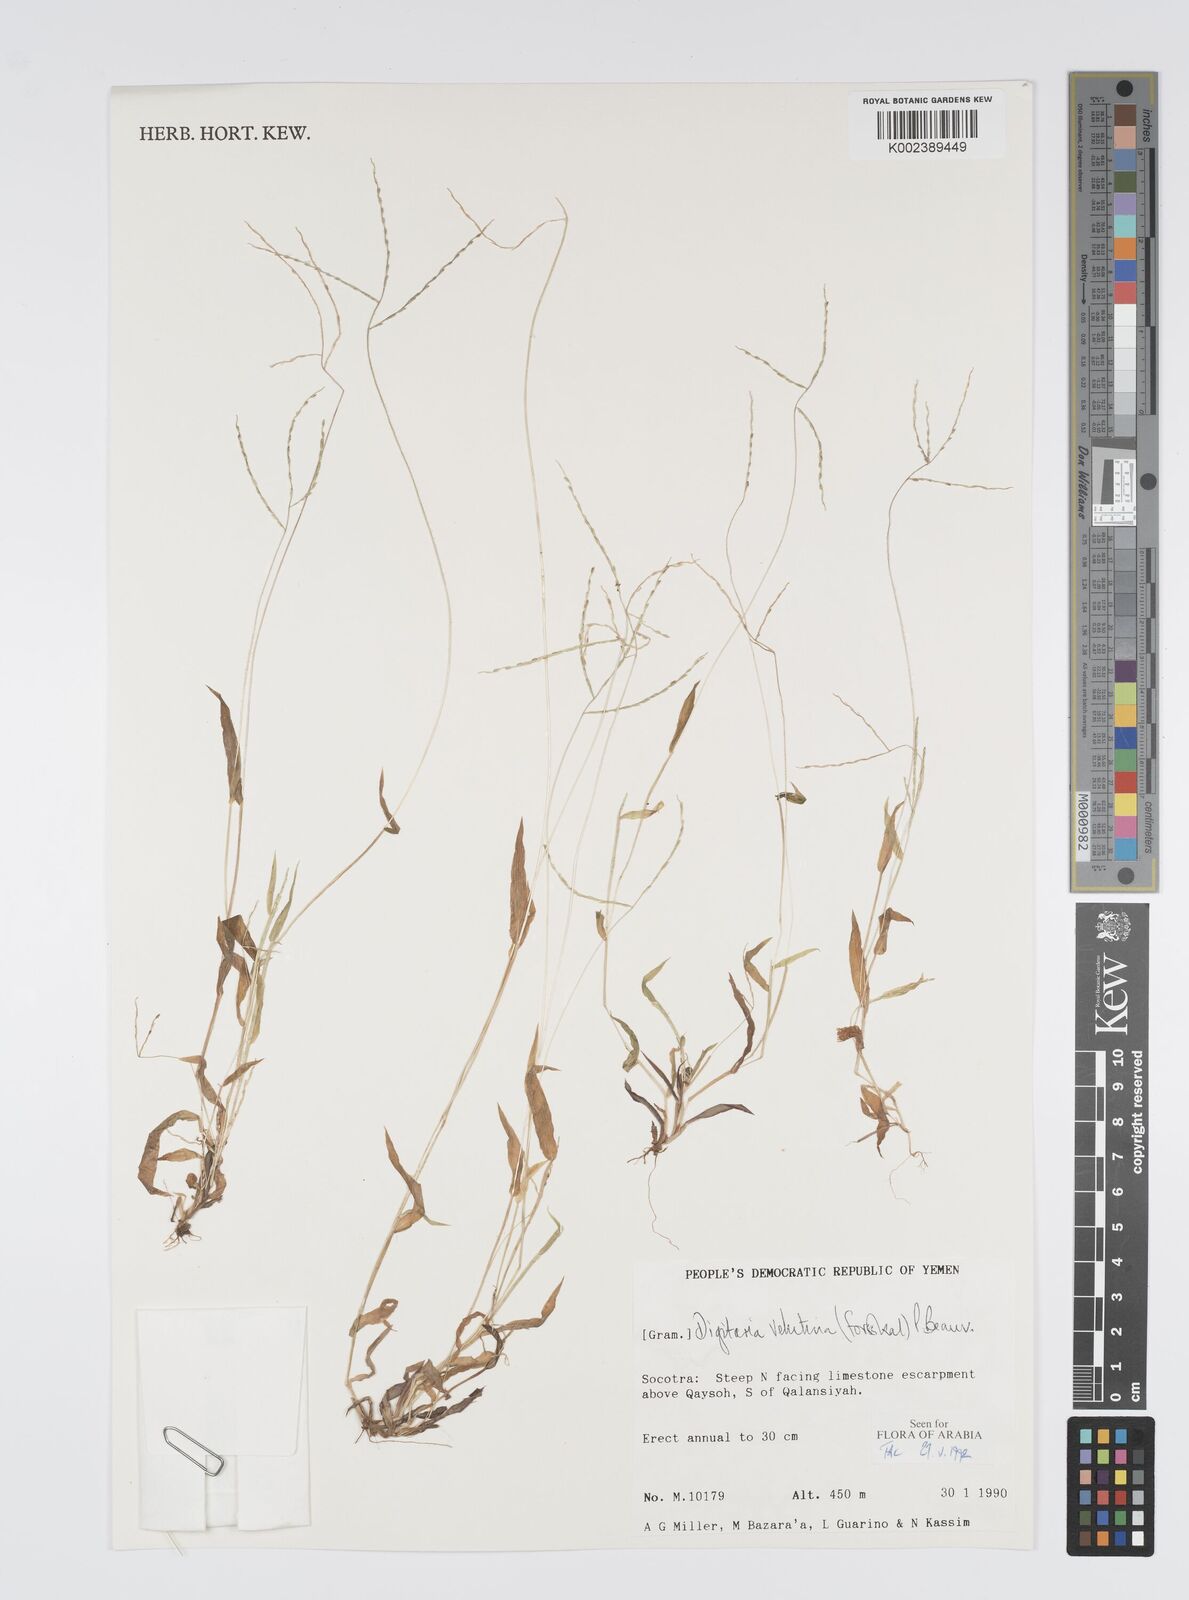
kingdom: Plantae
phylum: Tracheophyta
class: Liliopsida
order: Poales
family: Poaceae
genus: Digitaria
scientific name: Digitaria velutina
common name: Long-plume finger grass
